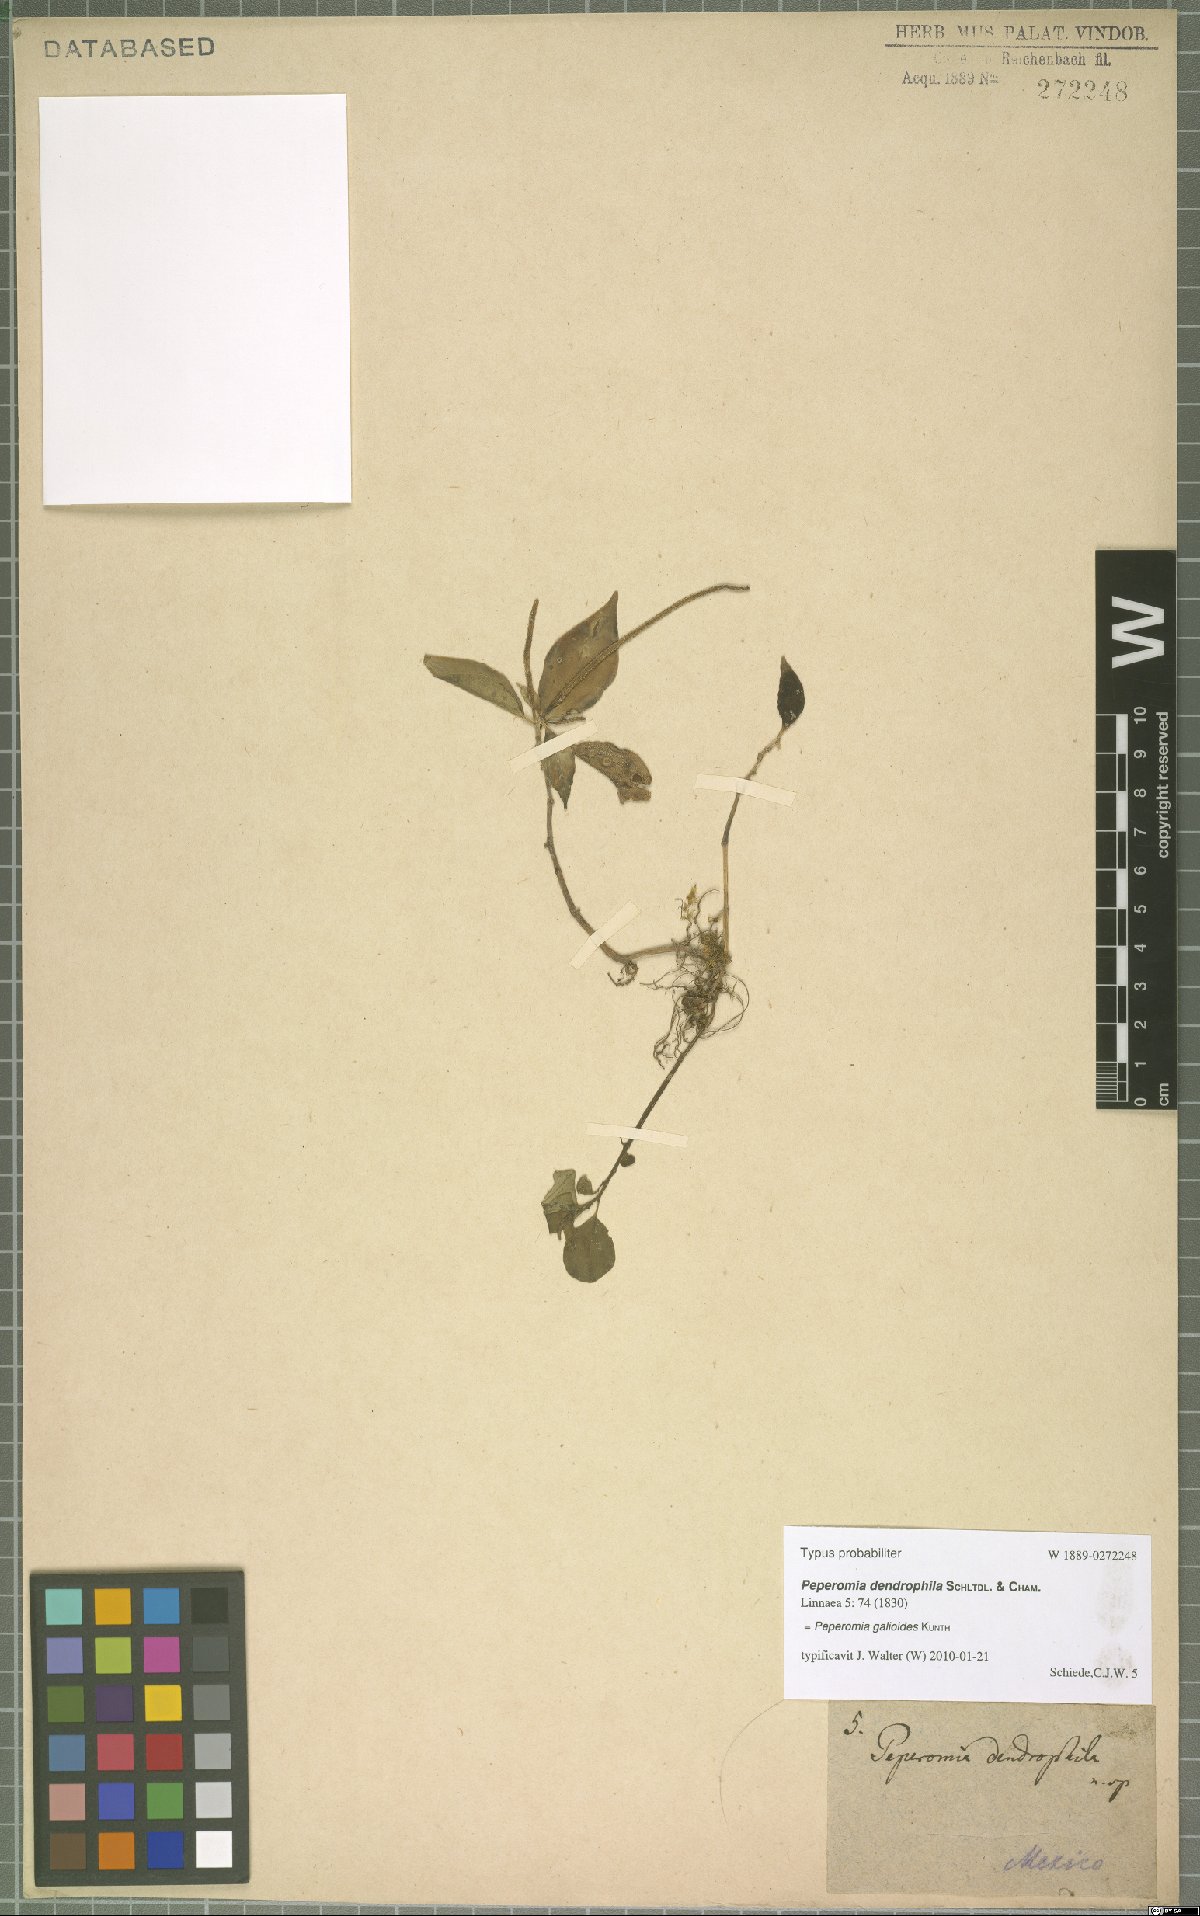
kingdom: Plantae
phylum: Tracheophyta
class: Magnoliopsida
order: Piperales
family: Piperaceae
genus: Peperomia
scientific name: Peperomia galioides
